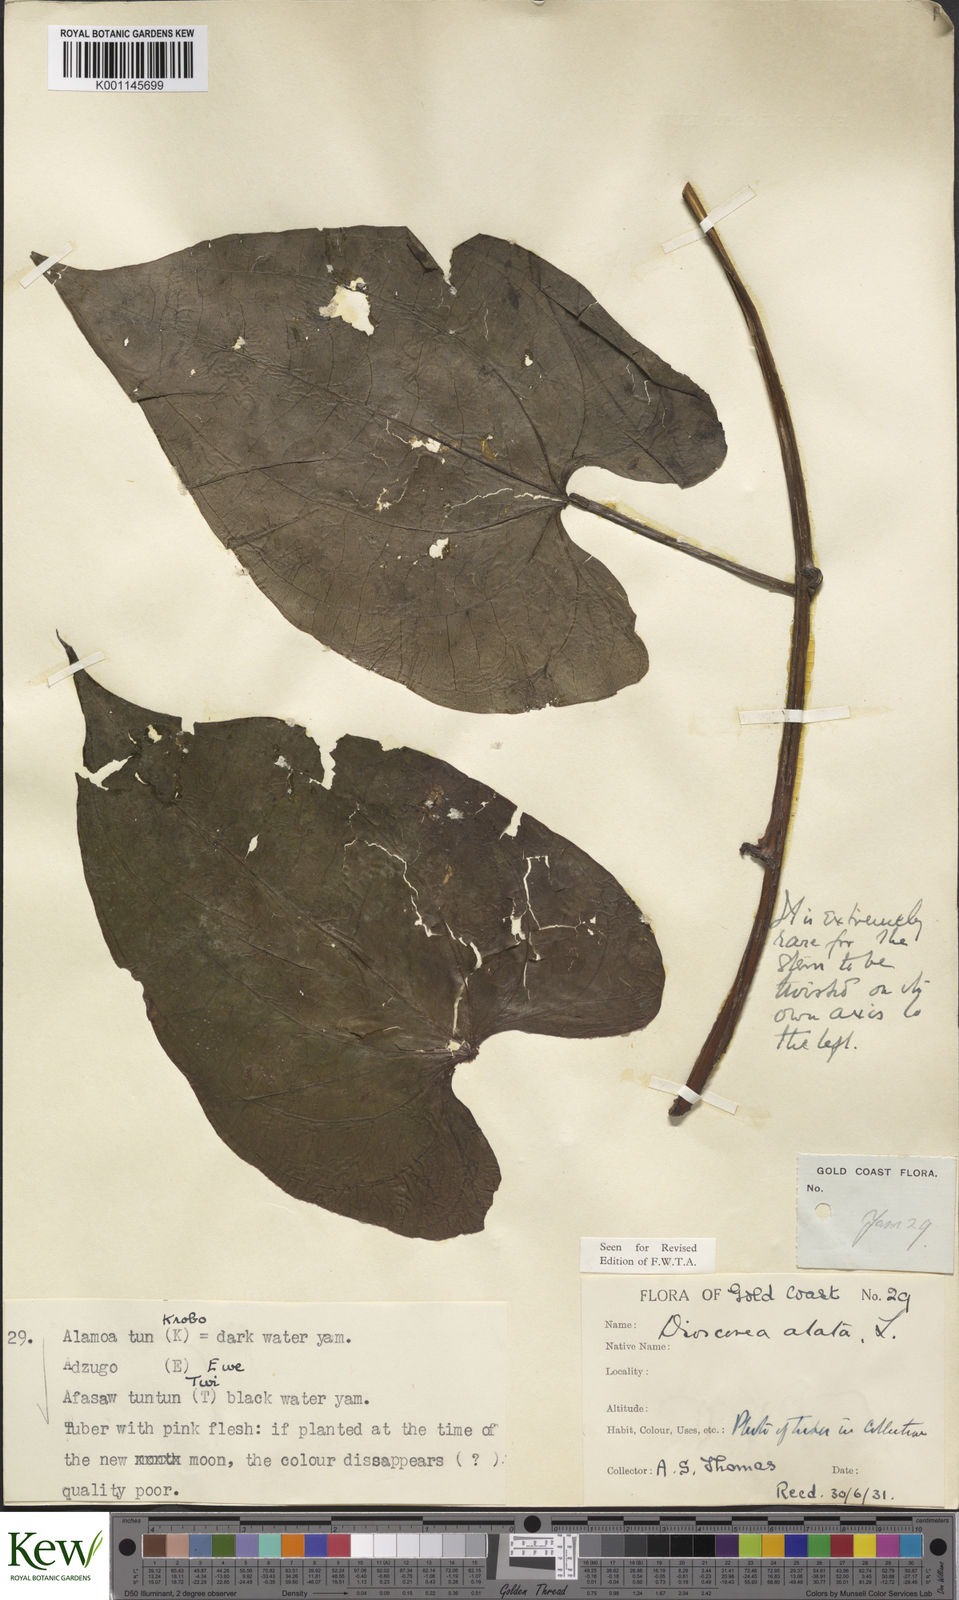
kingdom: Plantae
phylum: Tracheophyta
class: Liliopsida
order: Dioscoreales
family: Dioscoreaceae
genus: Dioscorea
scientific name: Dioscorea alata
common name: Water yam
